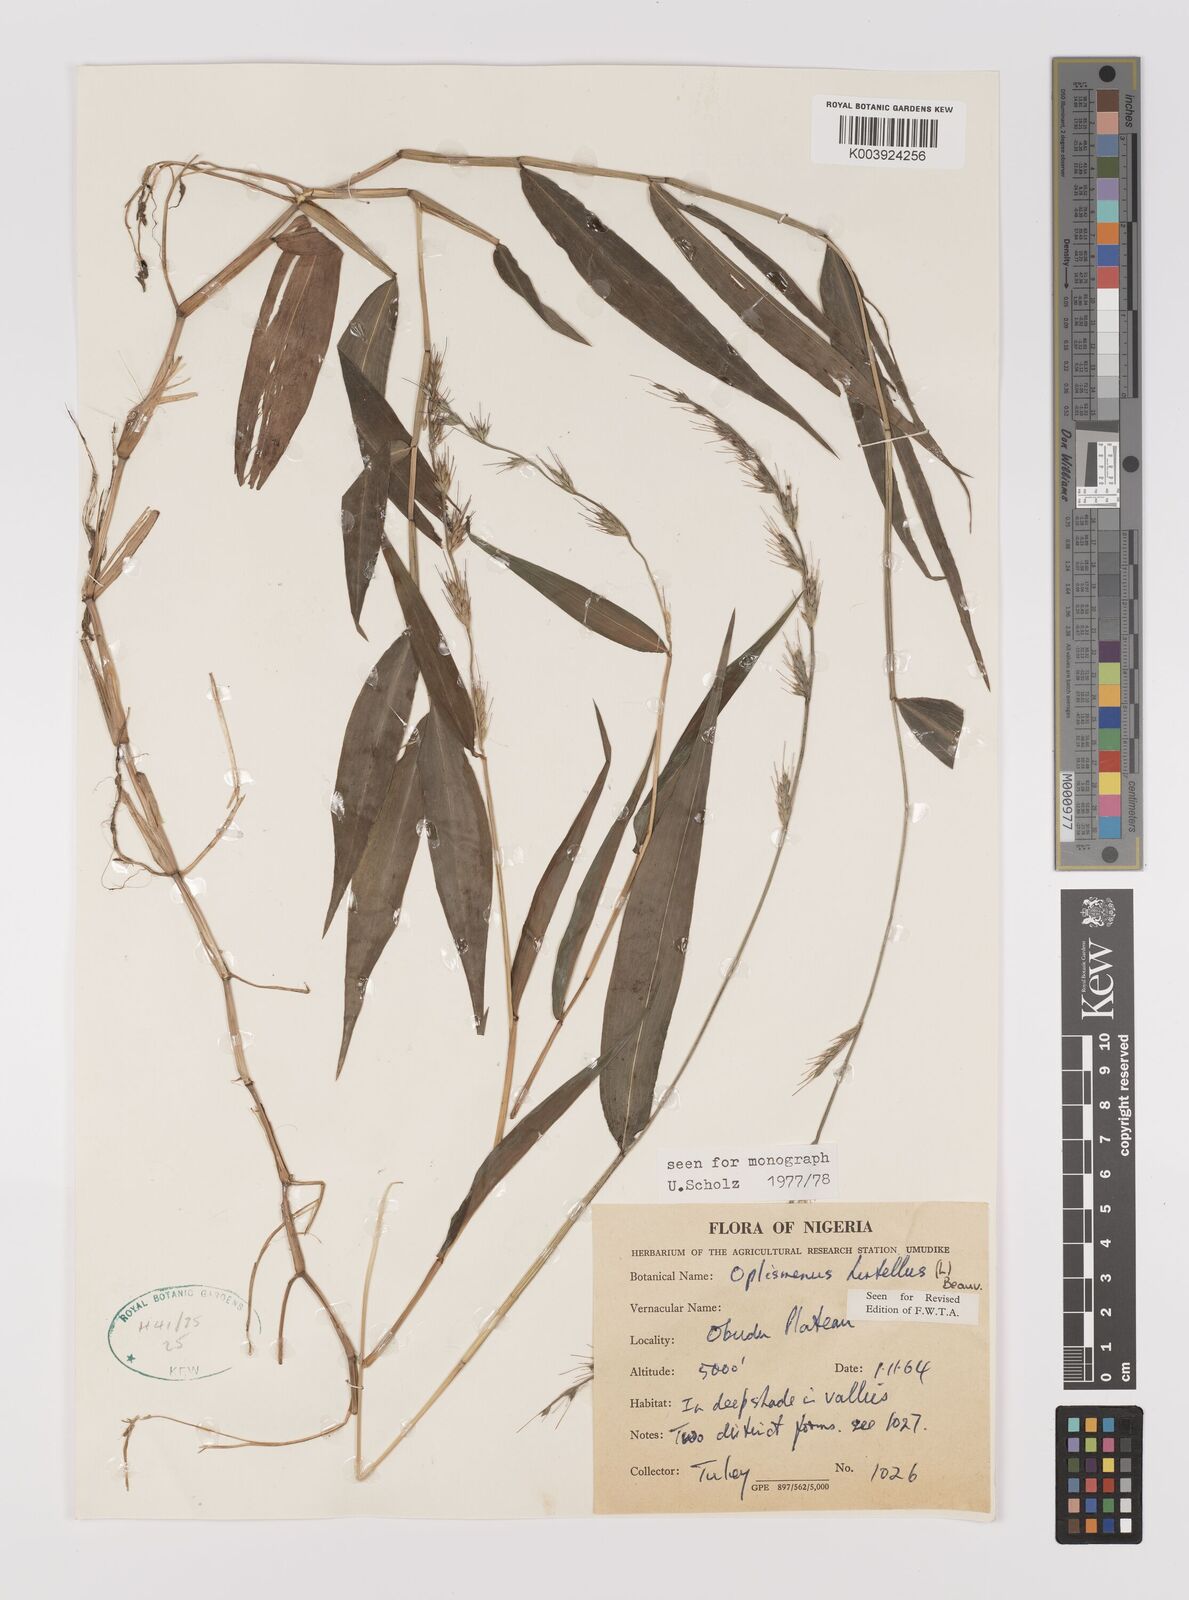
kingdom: Plantae
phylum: Tracheophyta
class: Liliopsida
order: Poales
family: Poaceae
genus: Oplismenus
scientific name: Oplismenus hirtellus
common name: Basketgrass
